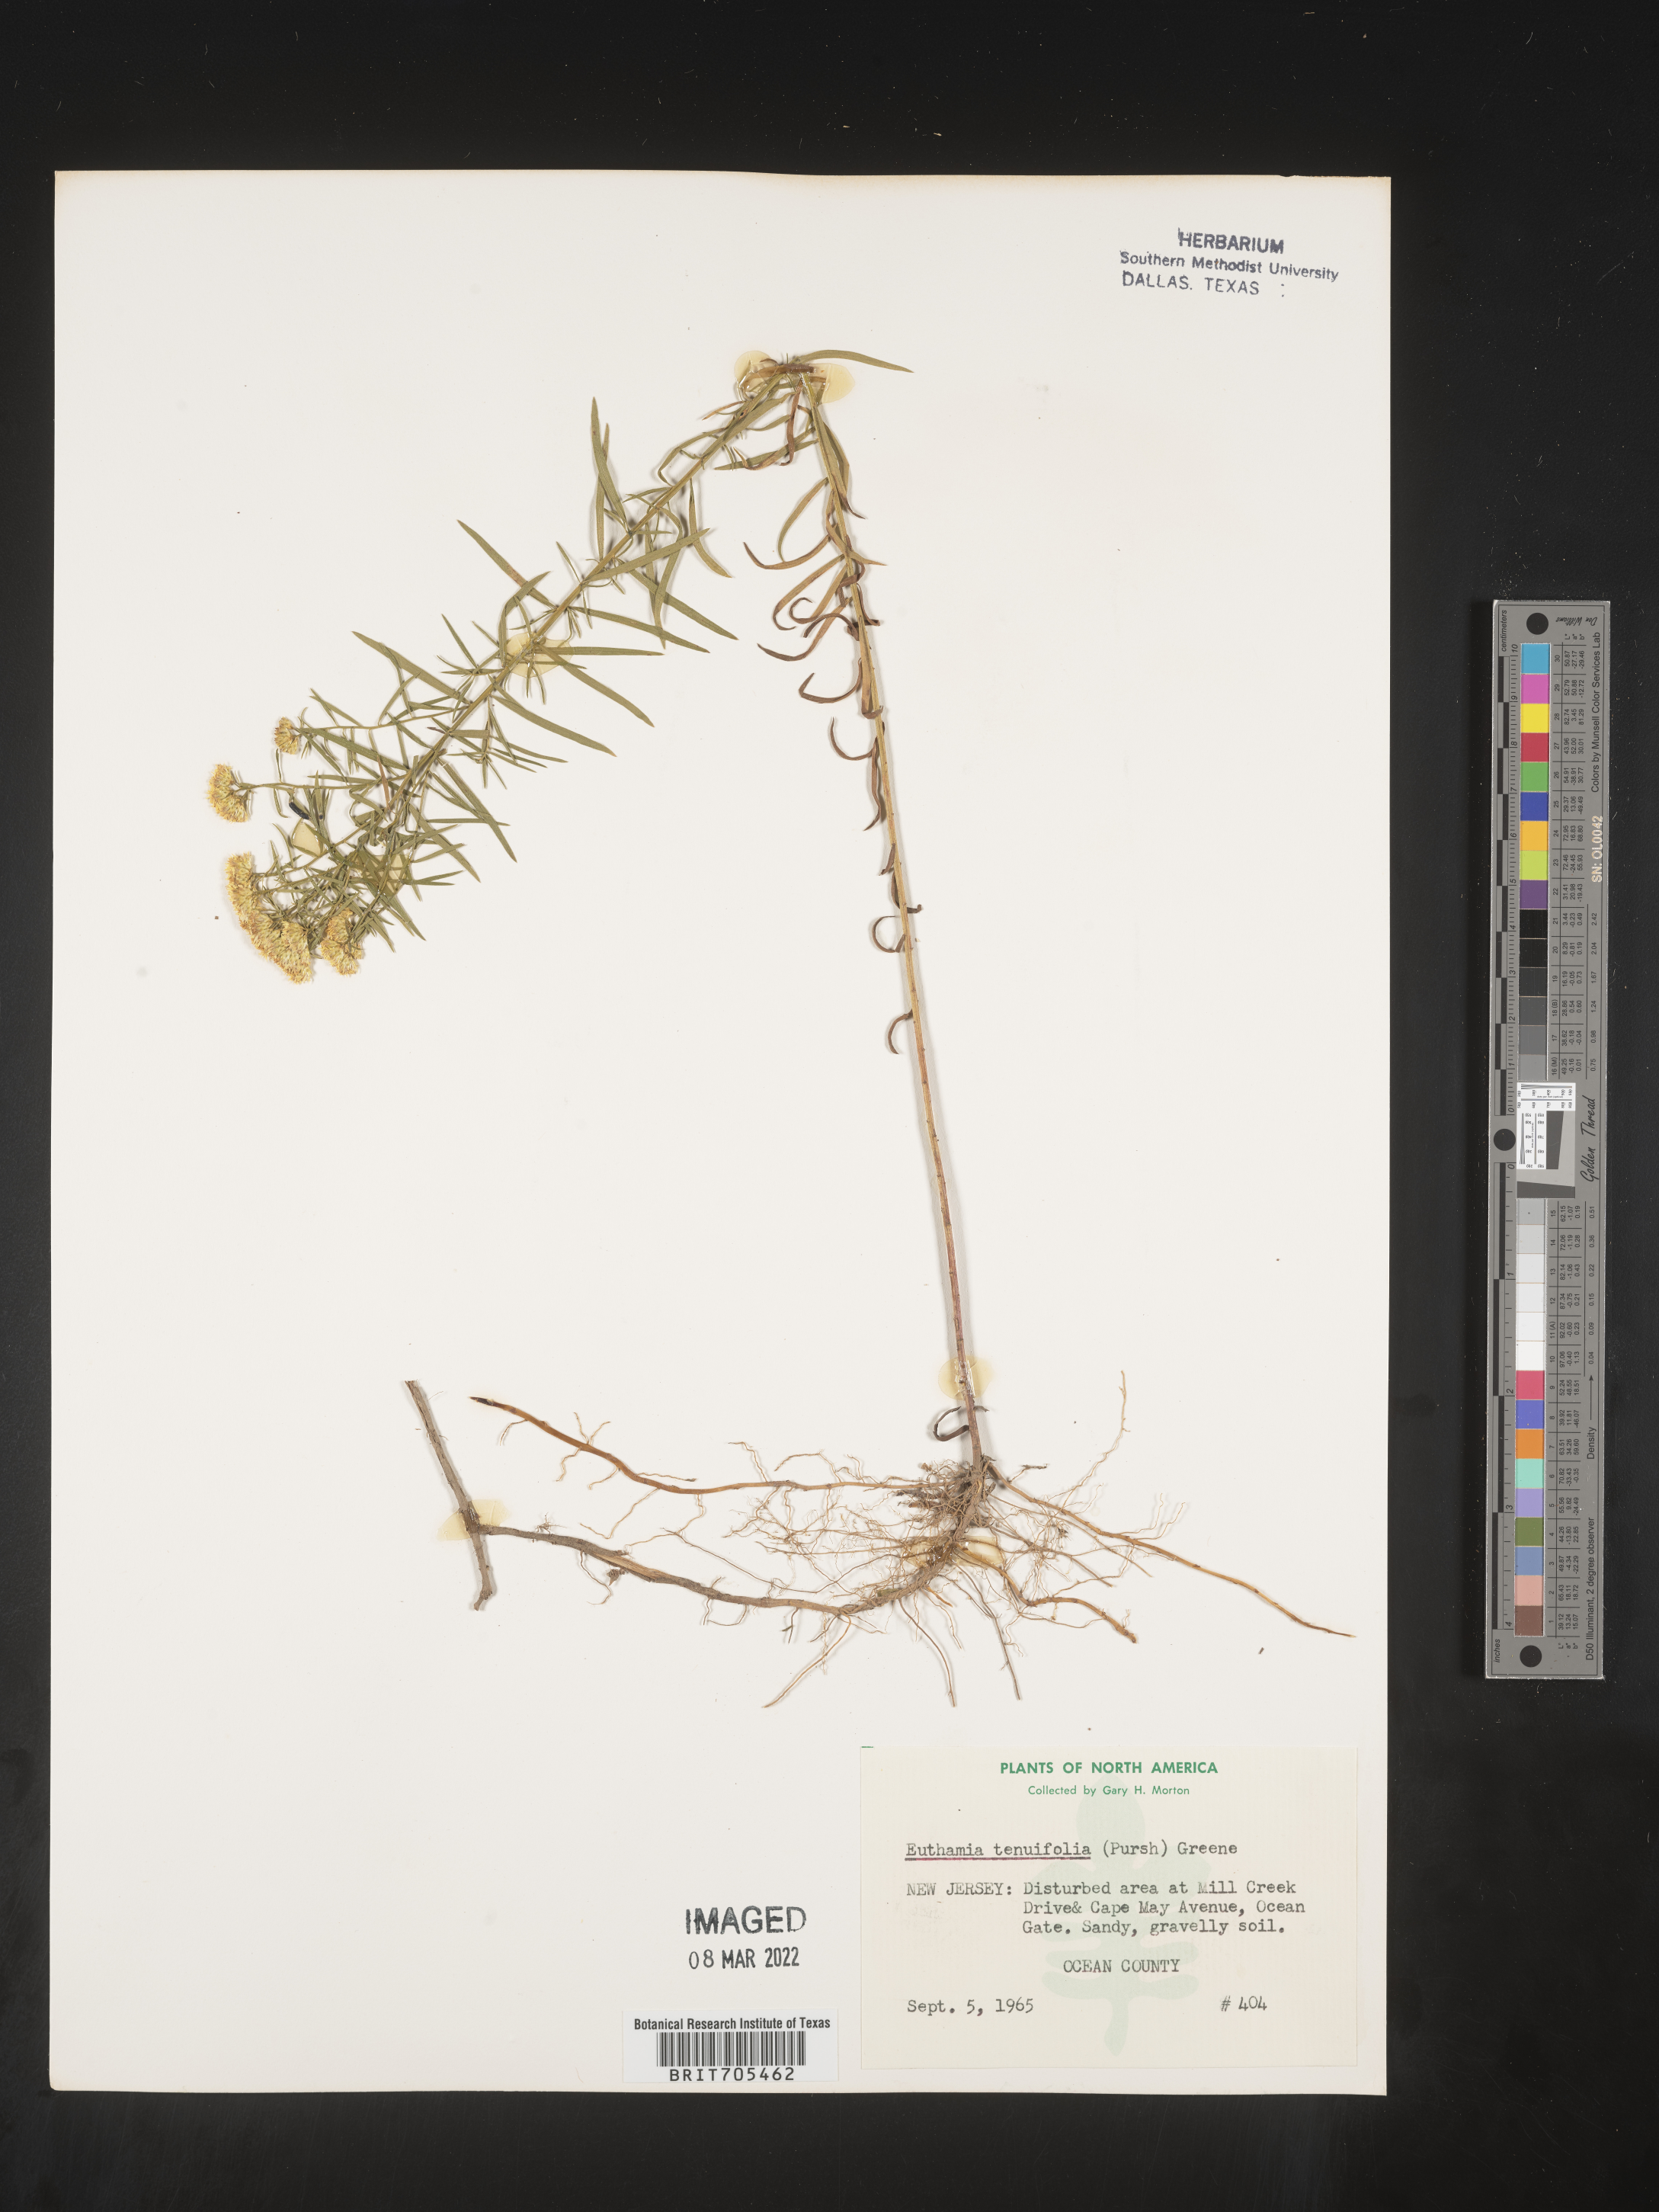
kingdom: Plantae
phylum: Tracheophyta
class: Magnoliopsida
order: Asterales
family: Asteraceae
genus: Euthamia
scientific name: Euthamia caroliniana
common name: Coastal plain goldentop
